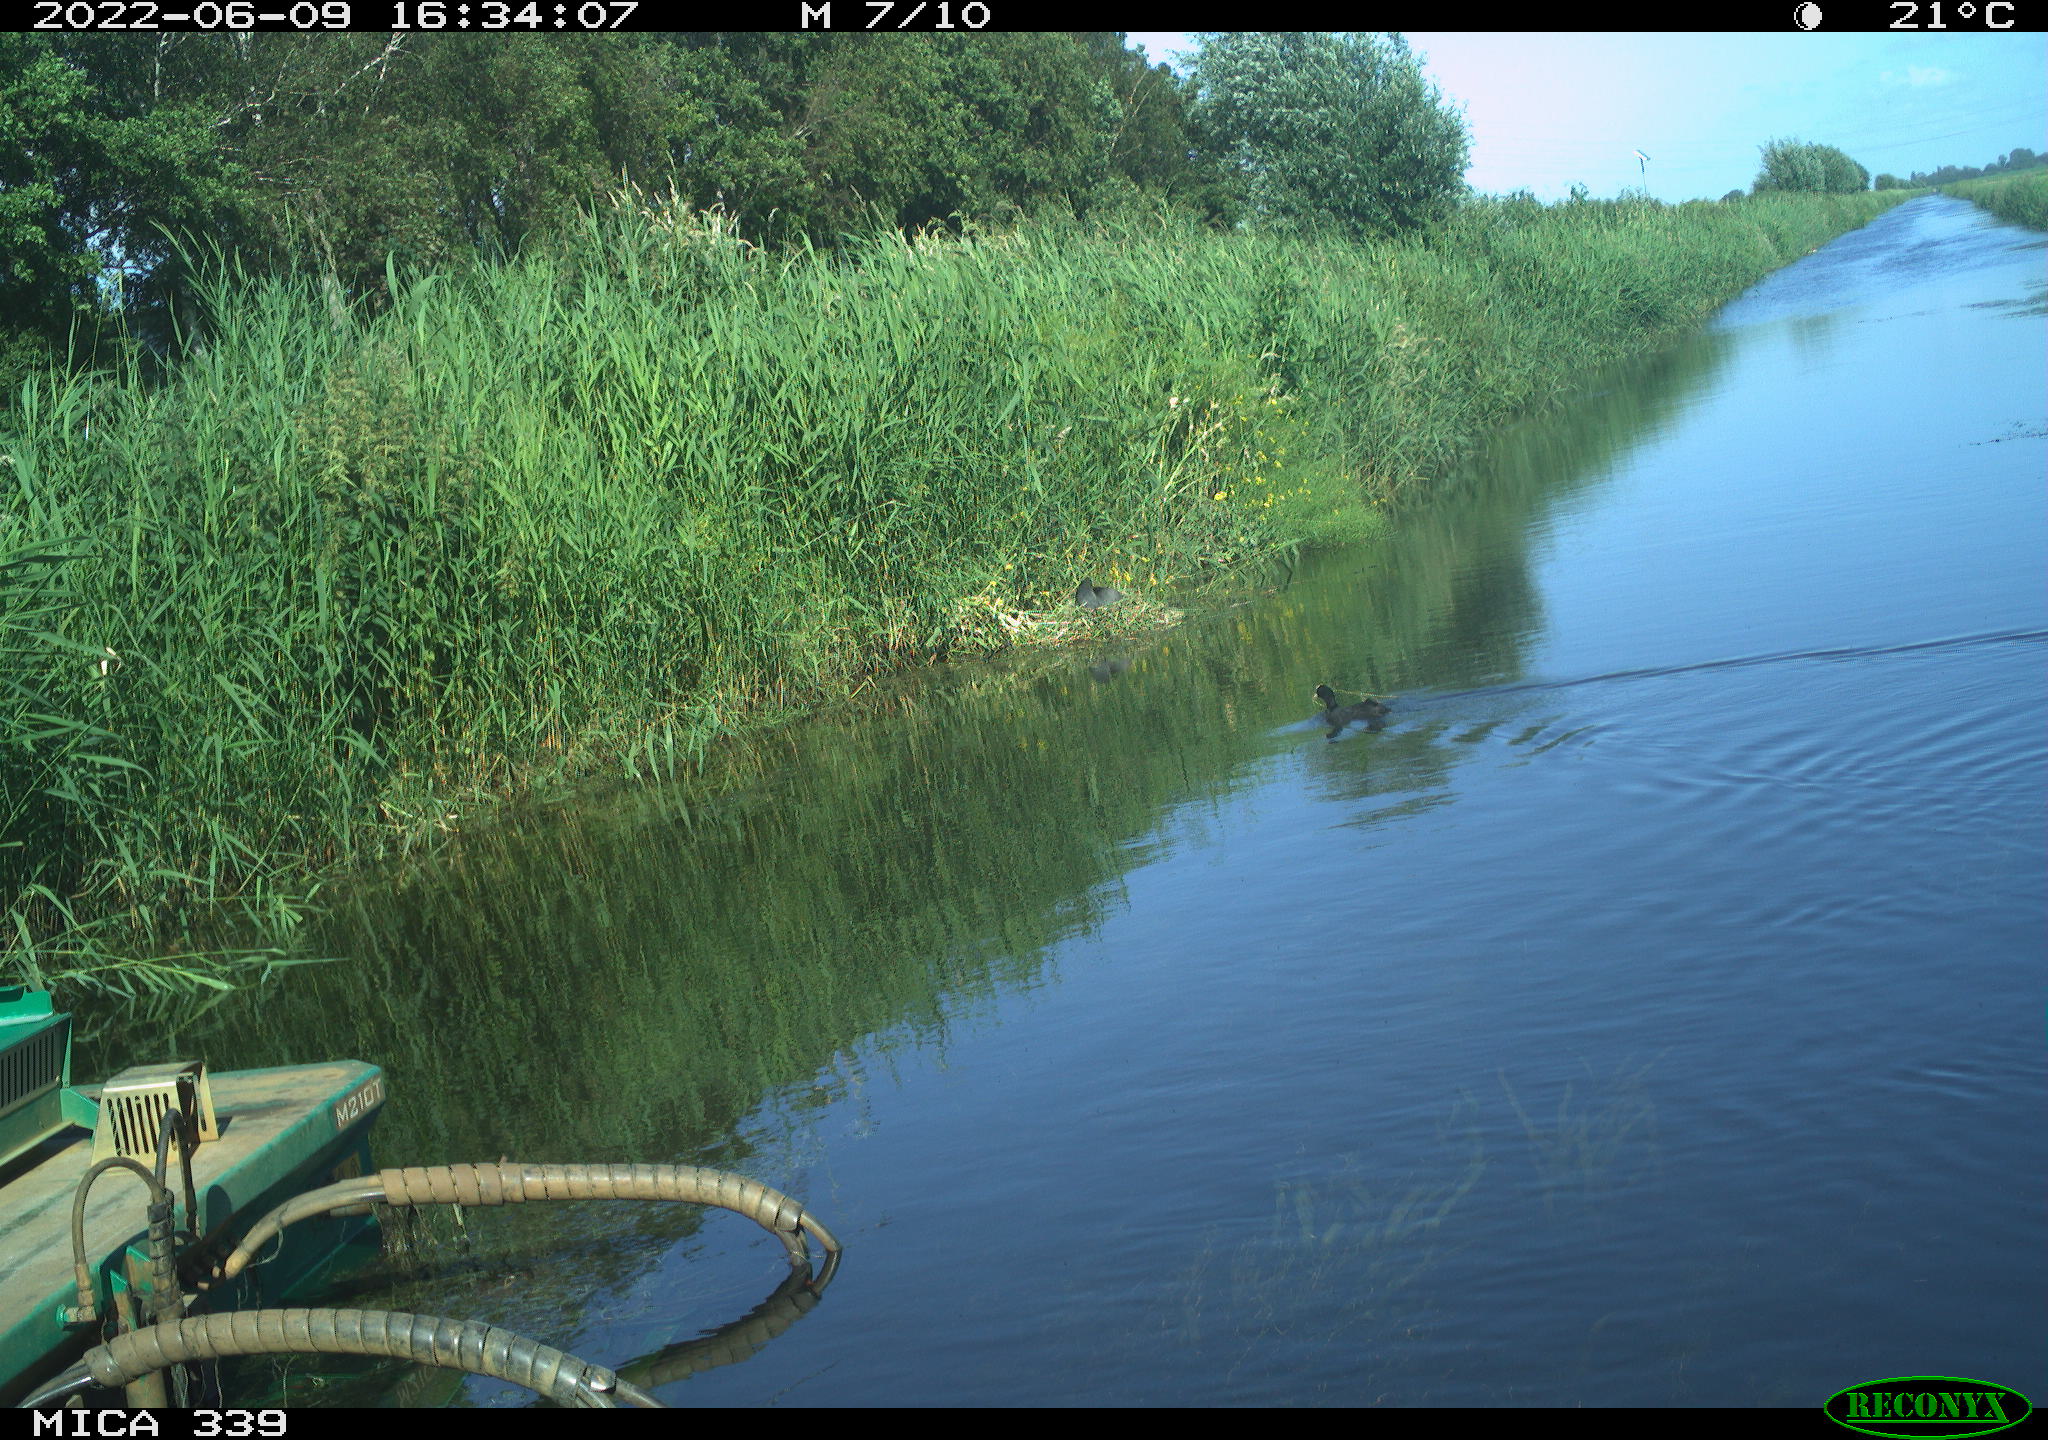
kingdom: Animalia
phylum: Chordata
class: Aves
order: Gruiformes
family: Rallidae
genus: Fulica
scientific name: Fulica atra
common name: Eurasian coot
